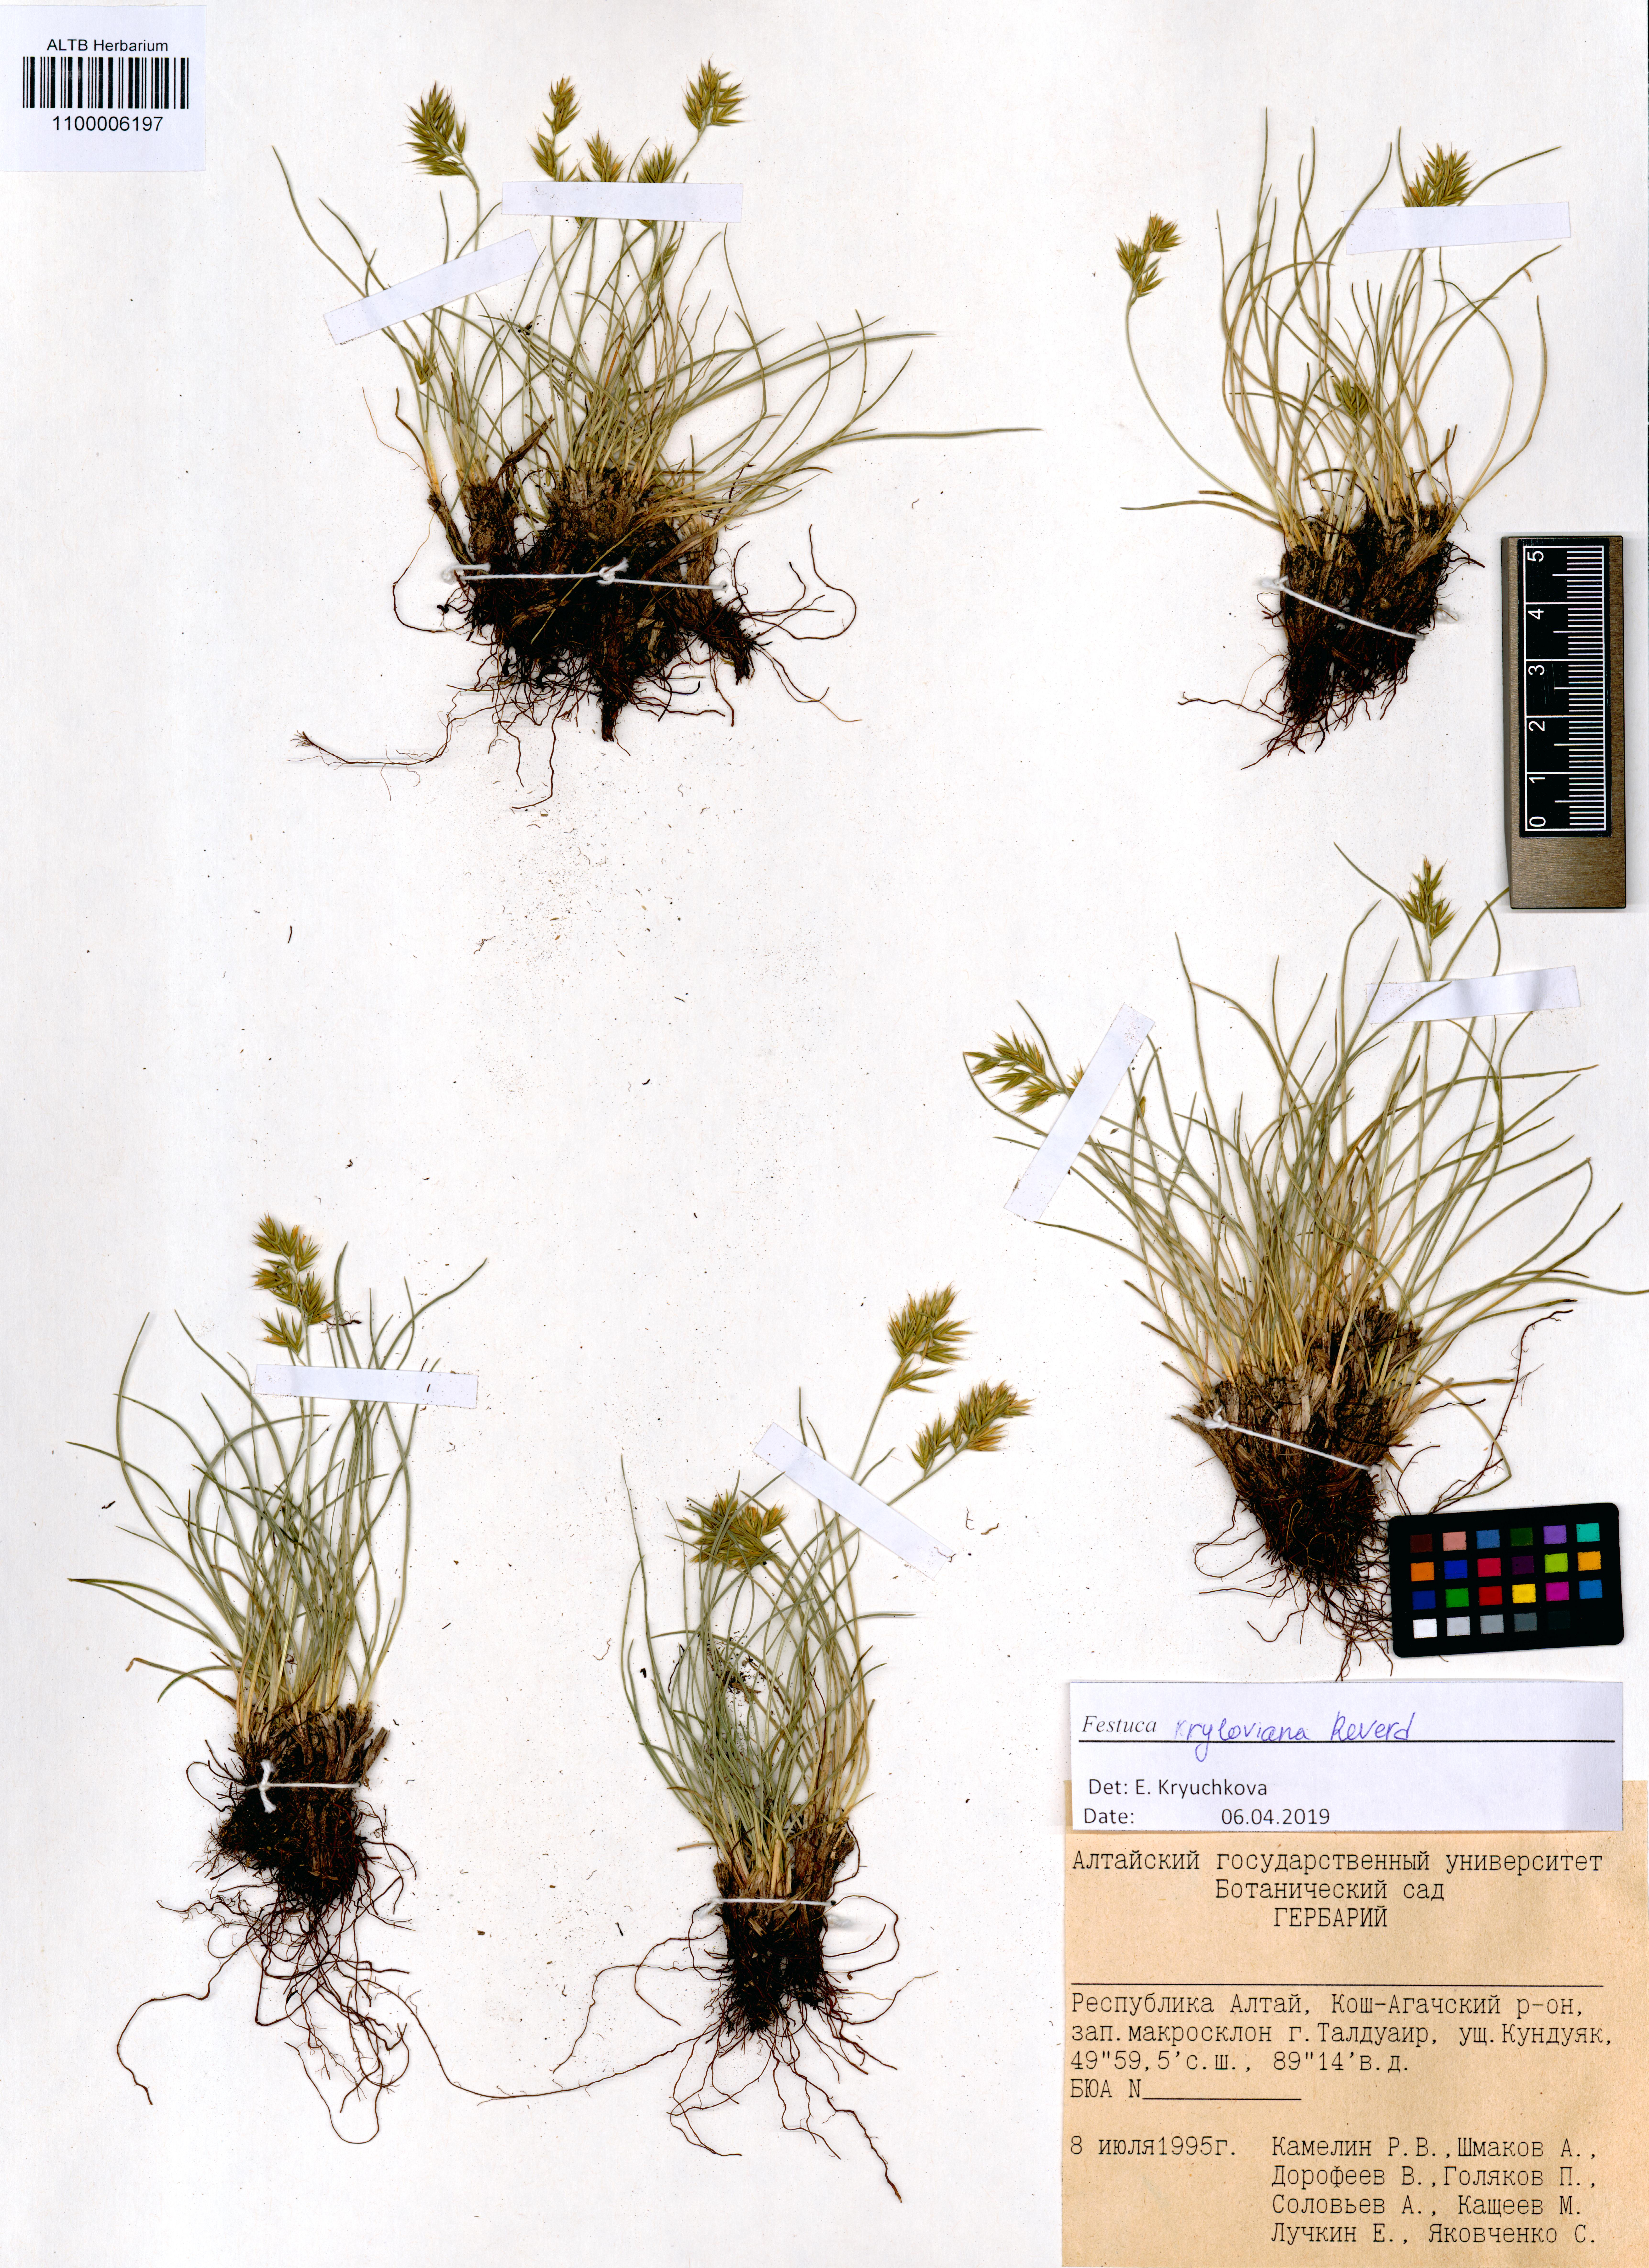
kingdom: Plantae
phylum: Tracheophyta
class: Liliopsida
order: Poales
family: Poaceae
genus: Festuca
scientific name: Festuca kryloviana
